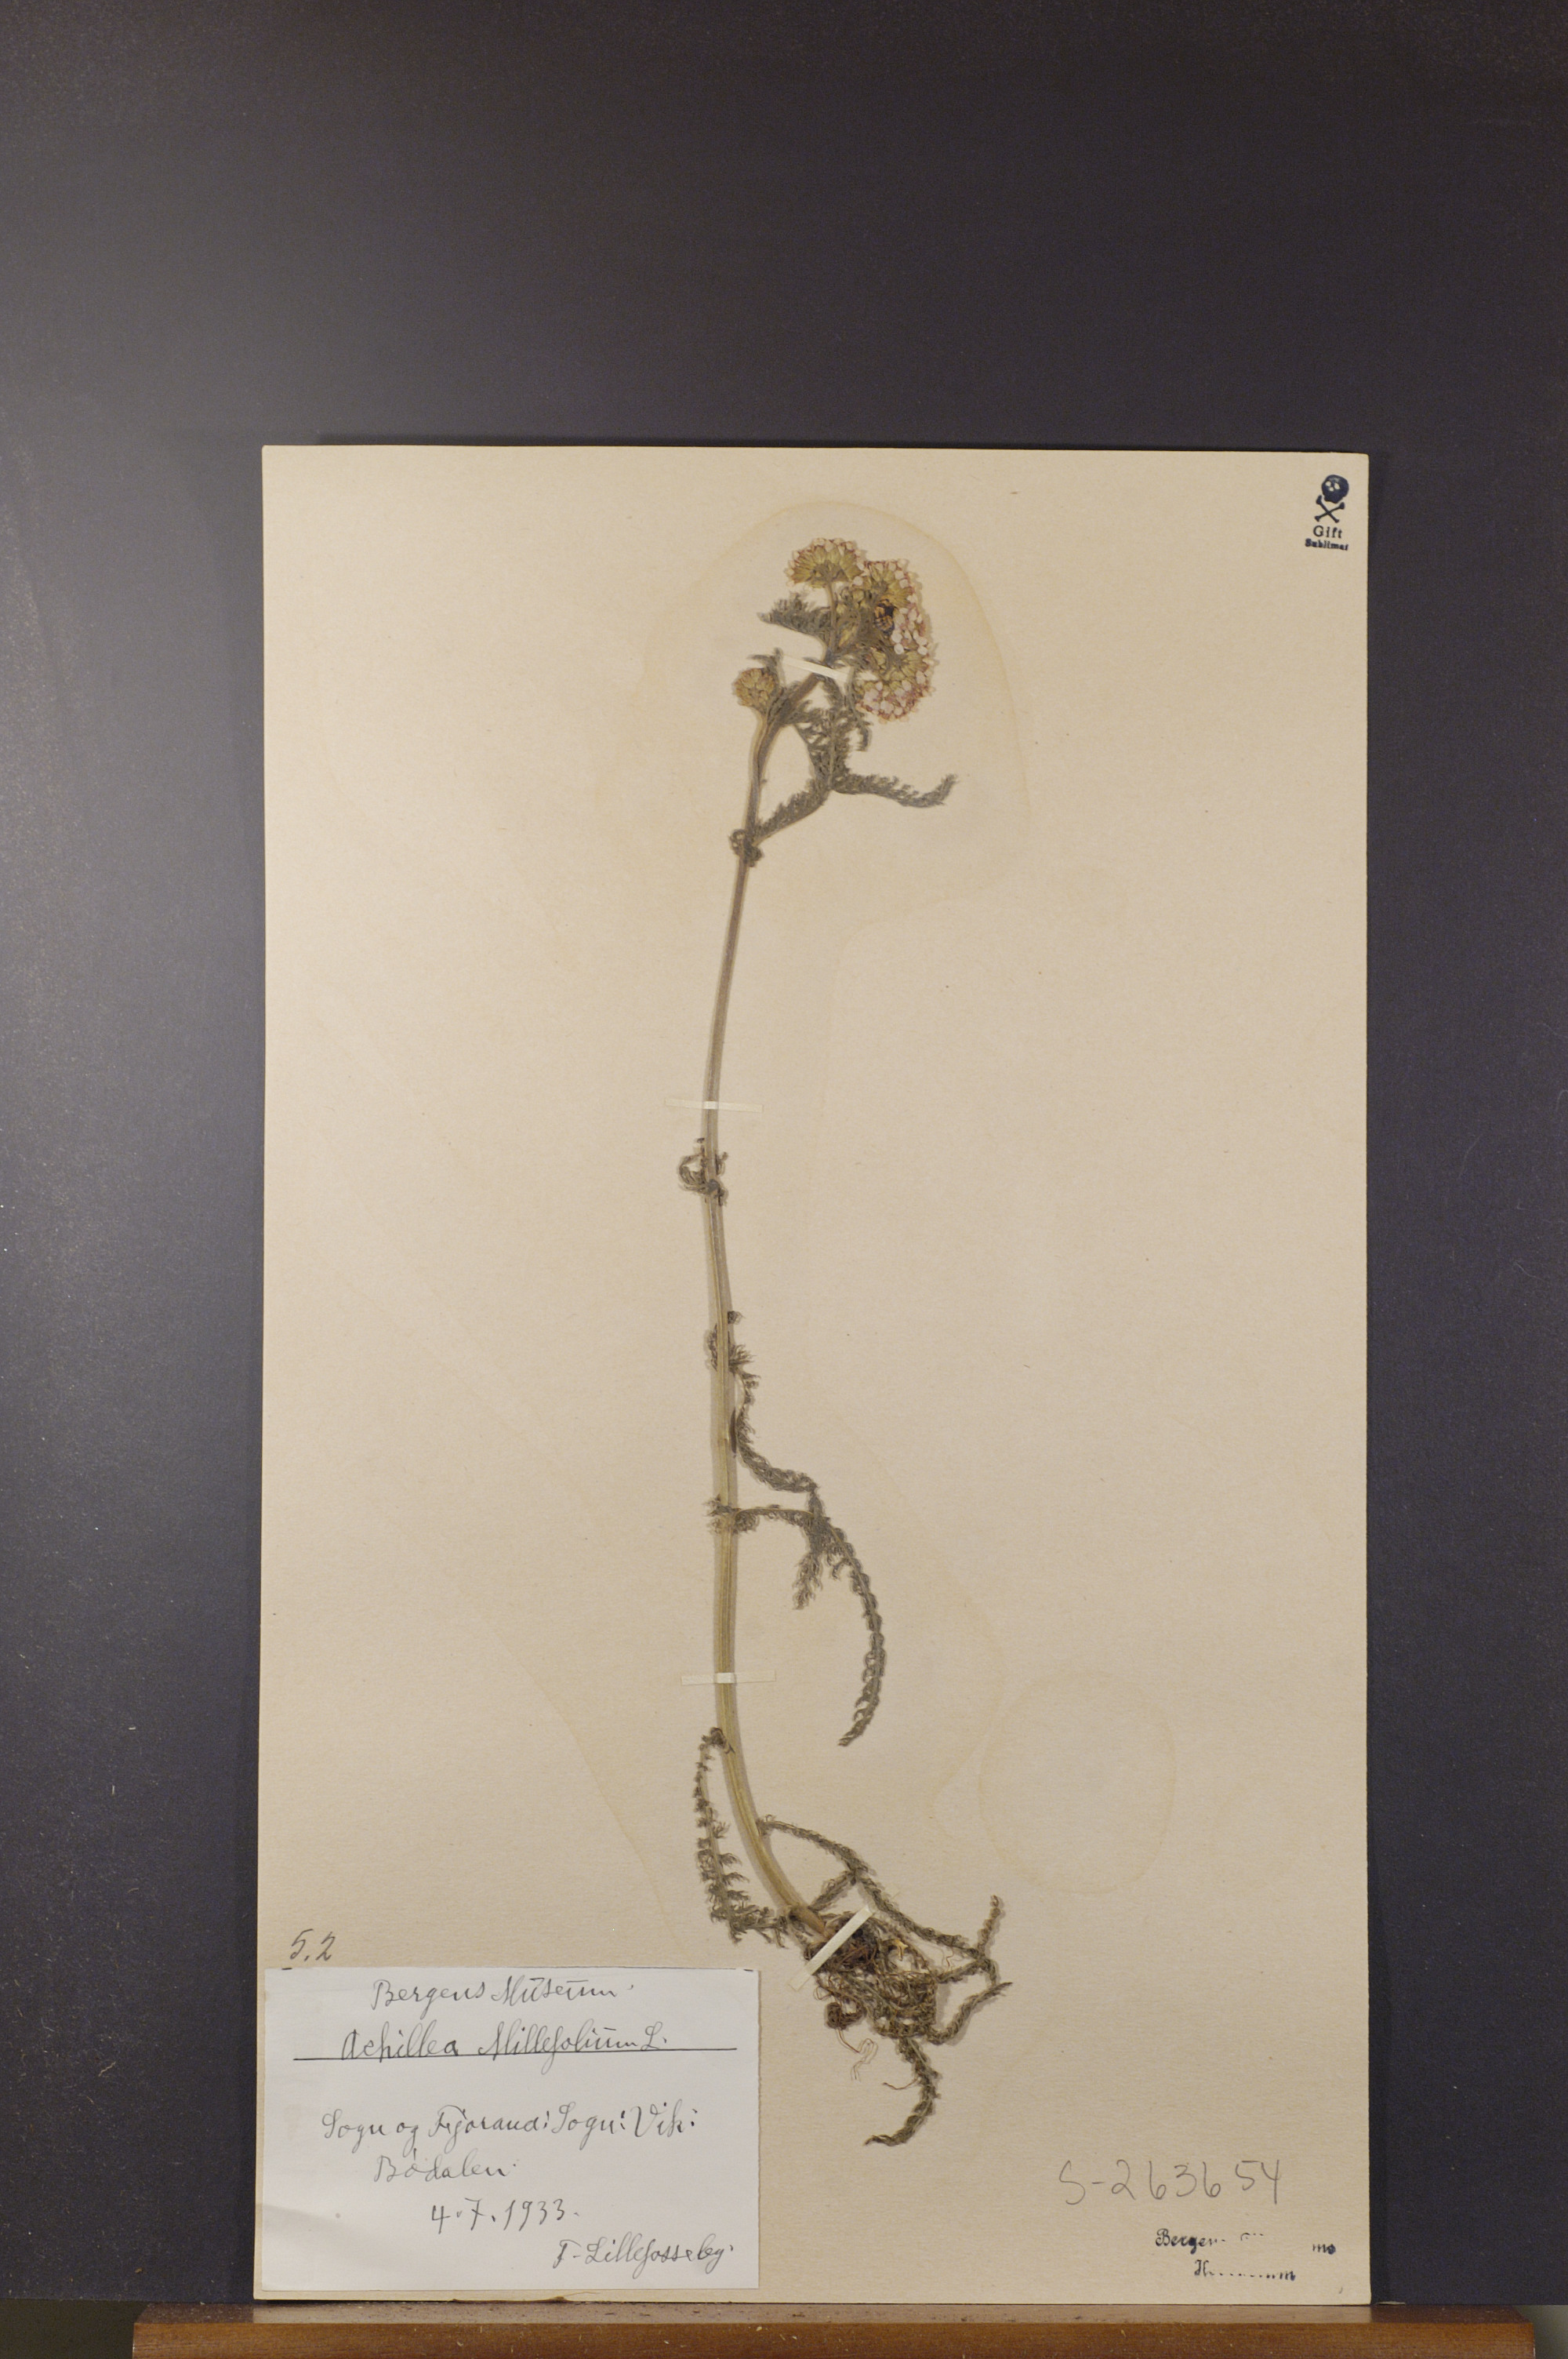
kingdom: Plantae
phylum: Tracheophyta
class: Magnoliopsida
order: Asterales
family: Asteraceae
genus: Achillea
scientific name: Achillea millefolium
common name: Yarrow
